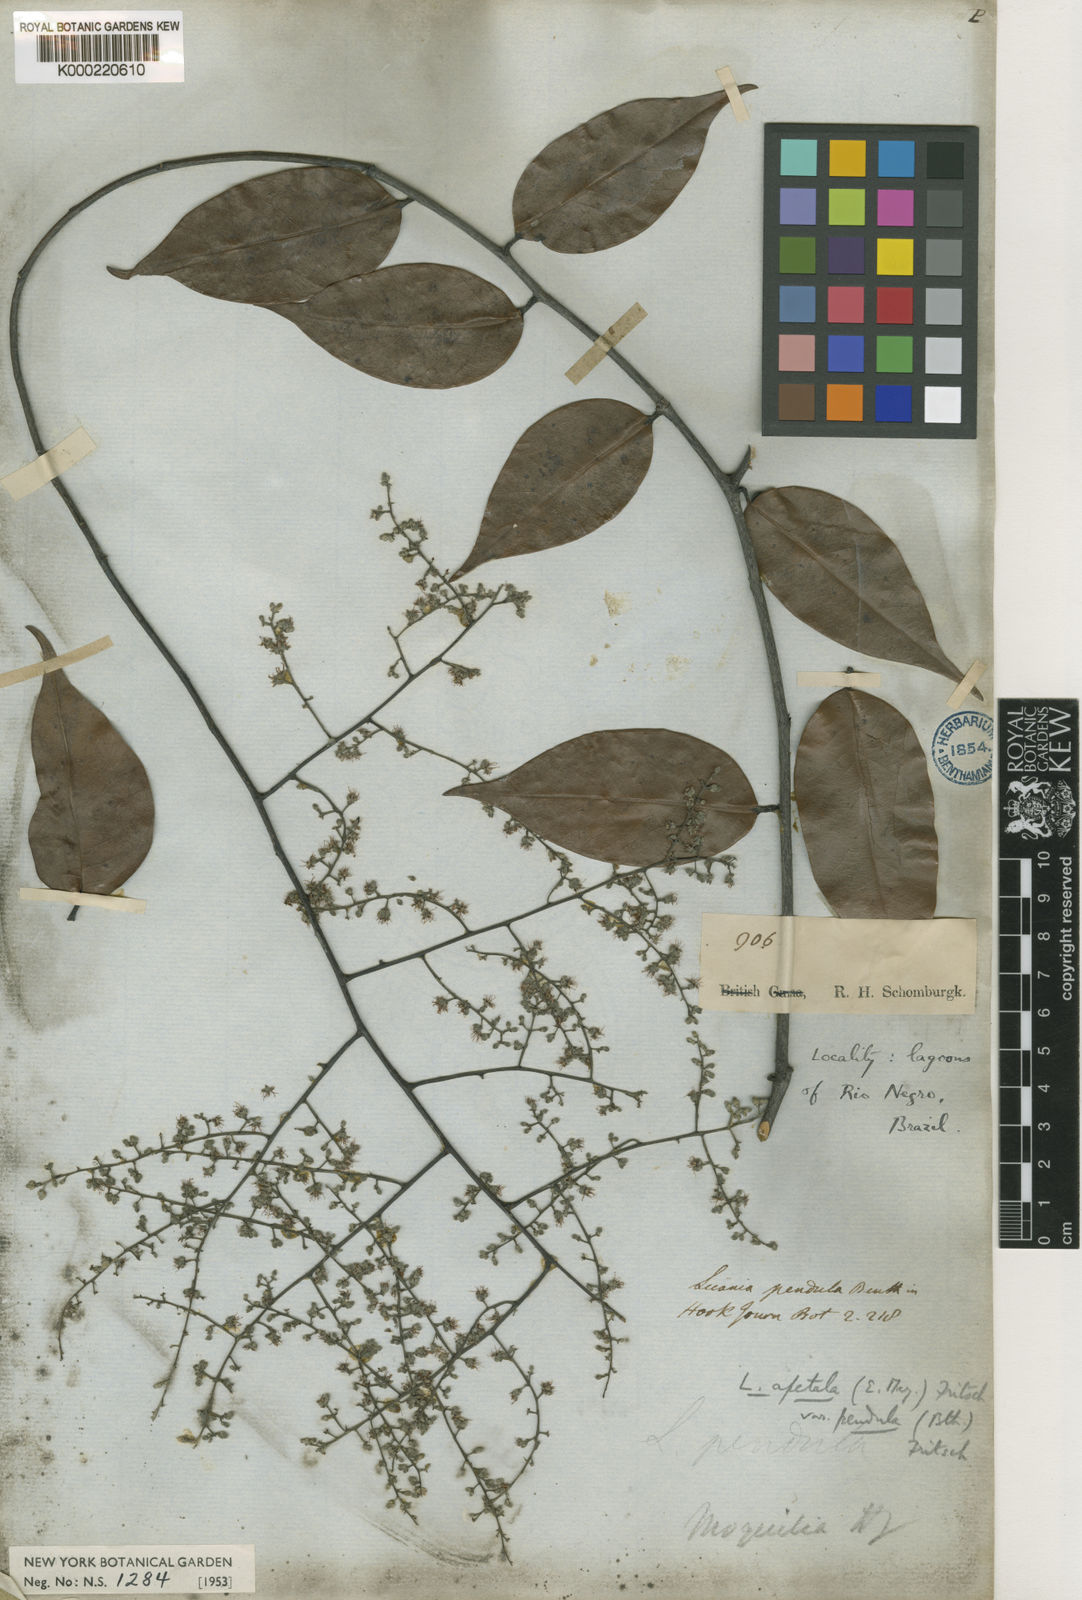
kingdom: Plantae
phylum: Tracheophyta
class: Magnoliopsida
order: Malpighiales
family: Chrysobalanaceae
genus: Leptobalanus
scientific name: Leptobalanus apetalus
